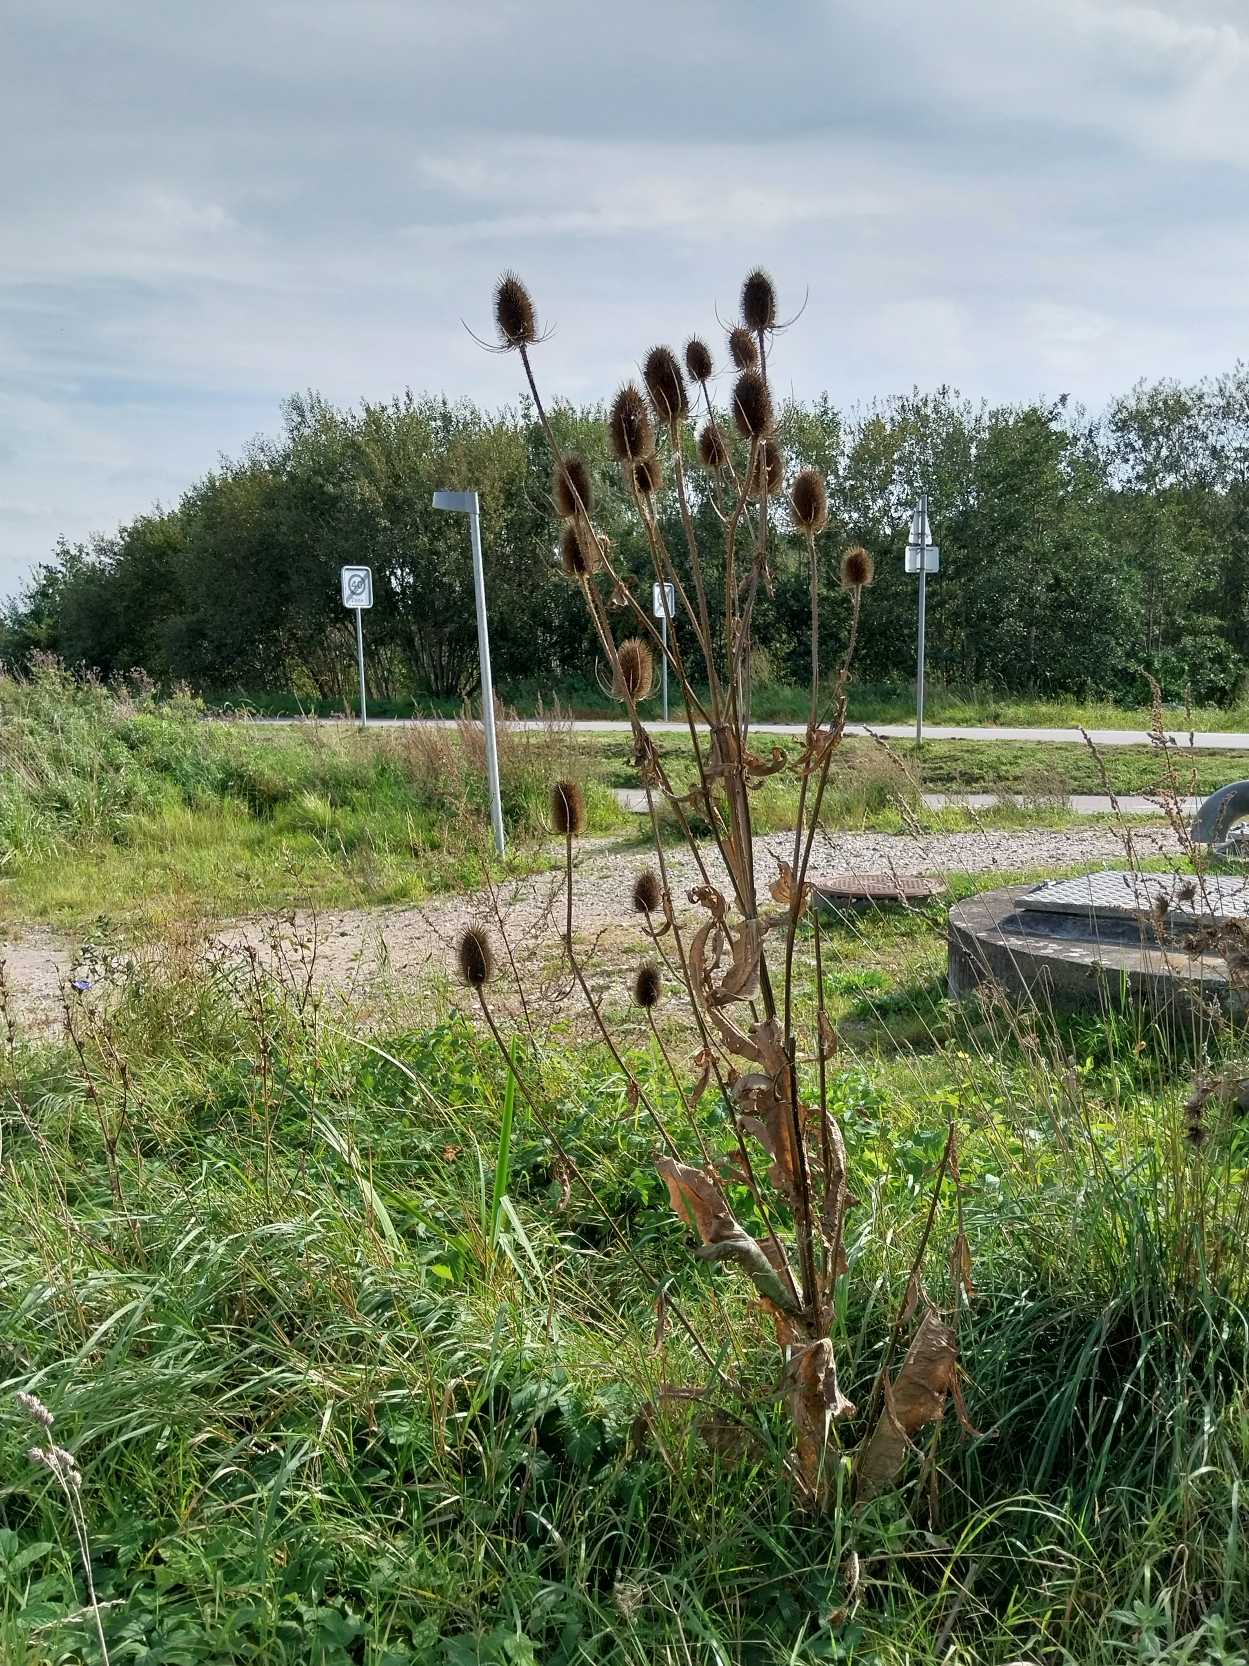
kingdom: Plantae
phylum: Tracheophyta
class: Magnoliopsida
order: Dipsacales
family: Caprifoliaceae
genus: Dipsacus
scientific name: Dipsacus fullonum
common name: Gærde-kartebolle
